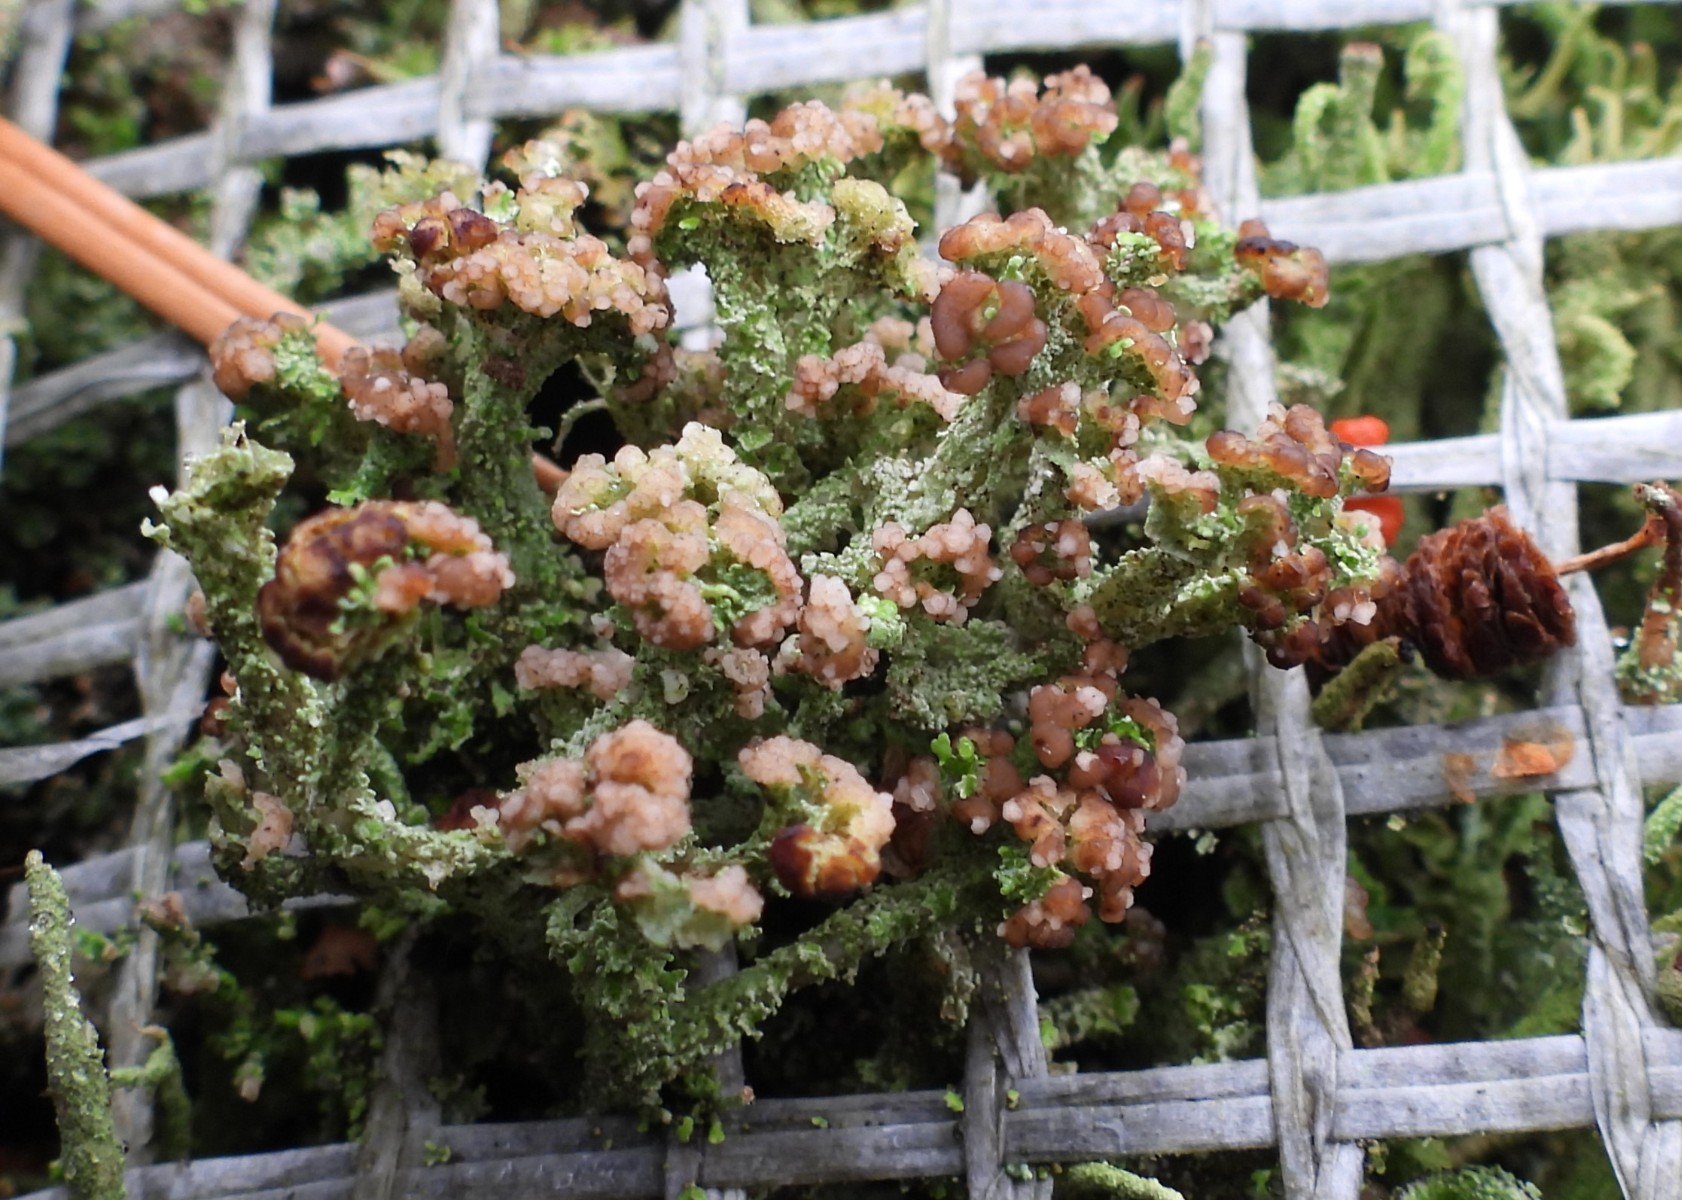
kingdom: Fungi
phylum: Ascomycota
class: Lecanoromycetes
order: Lecanorales
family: Cladoniaceae
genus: Cladonia
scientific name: Cladonia ramulosa
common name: kliddet bægerlav
